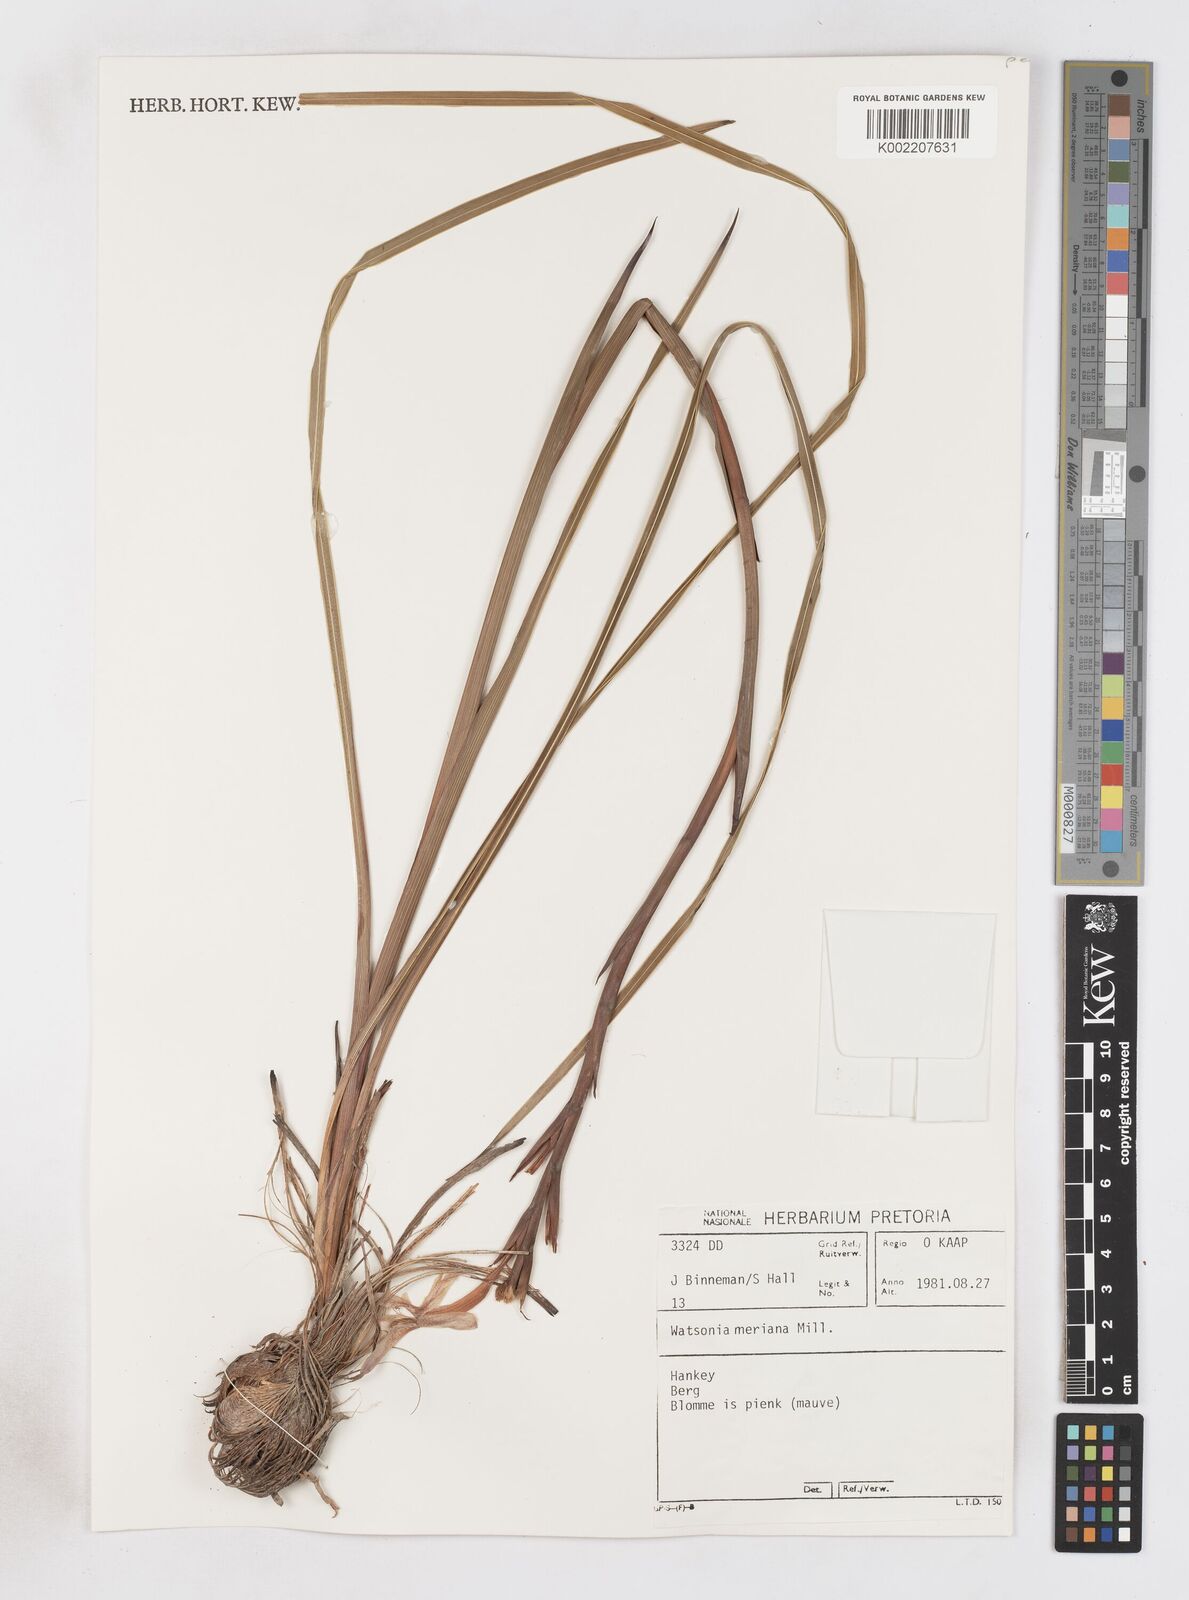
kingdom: Plantae
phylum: Tracheophyta
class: Liliopsida
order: Asparagales
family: Iridaceae
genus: Watsonia
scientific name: Watsonia meriana
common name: Bulbil bugle-lily
